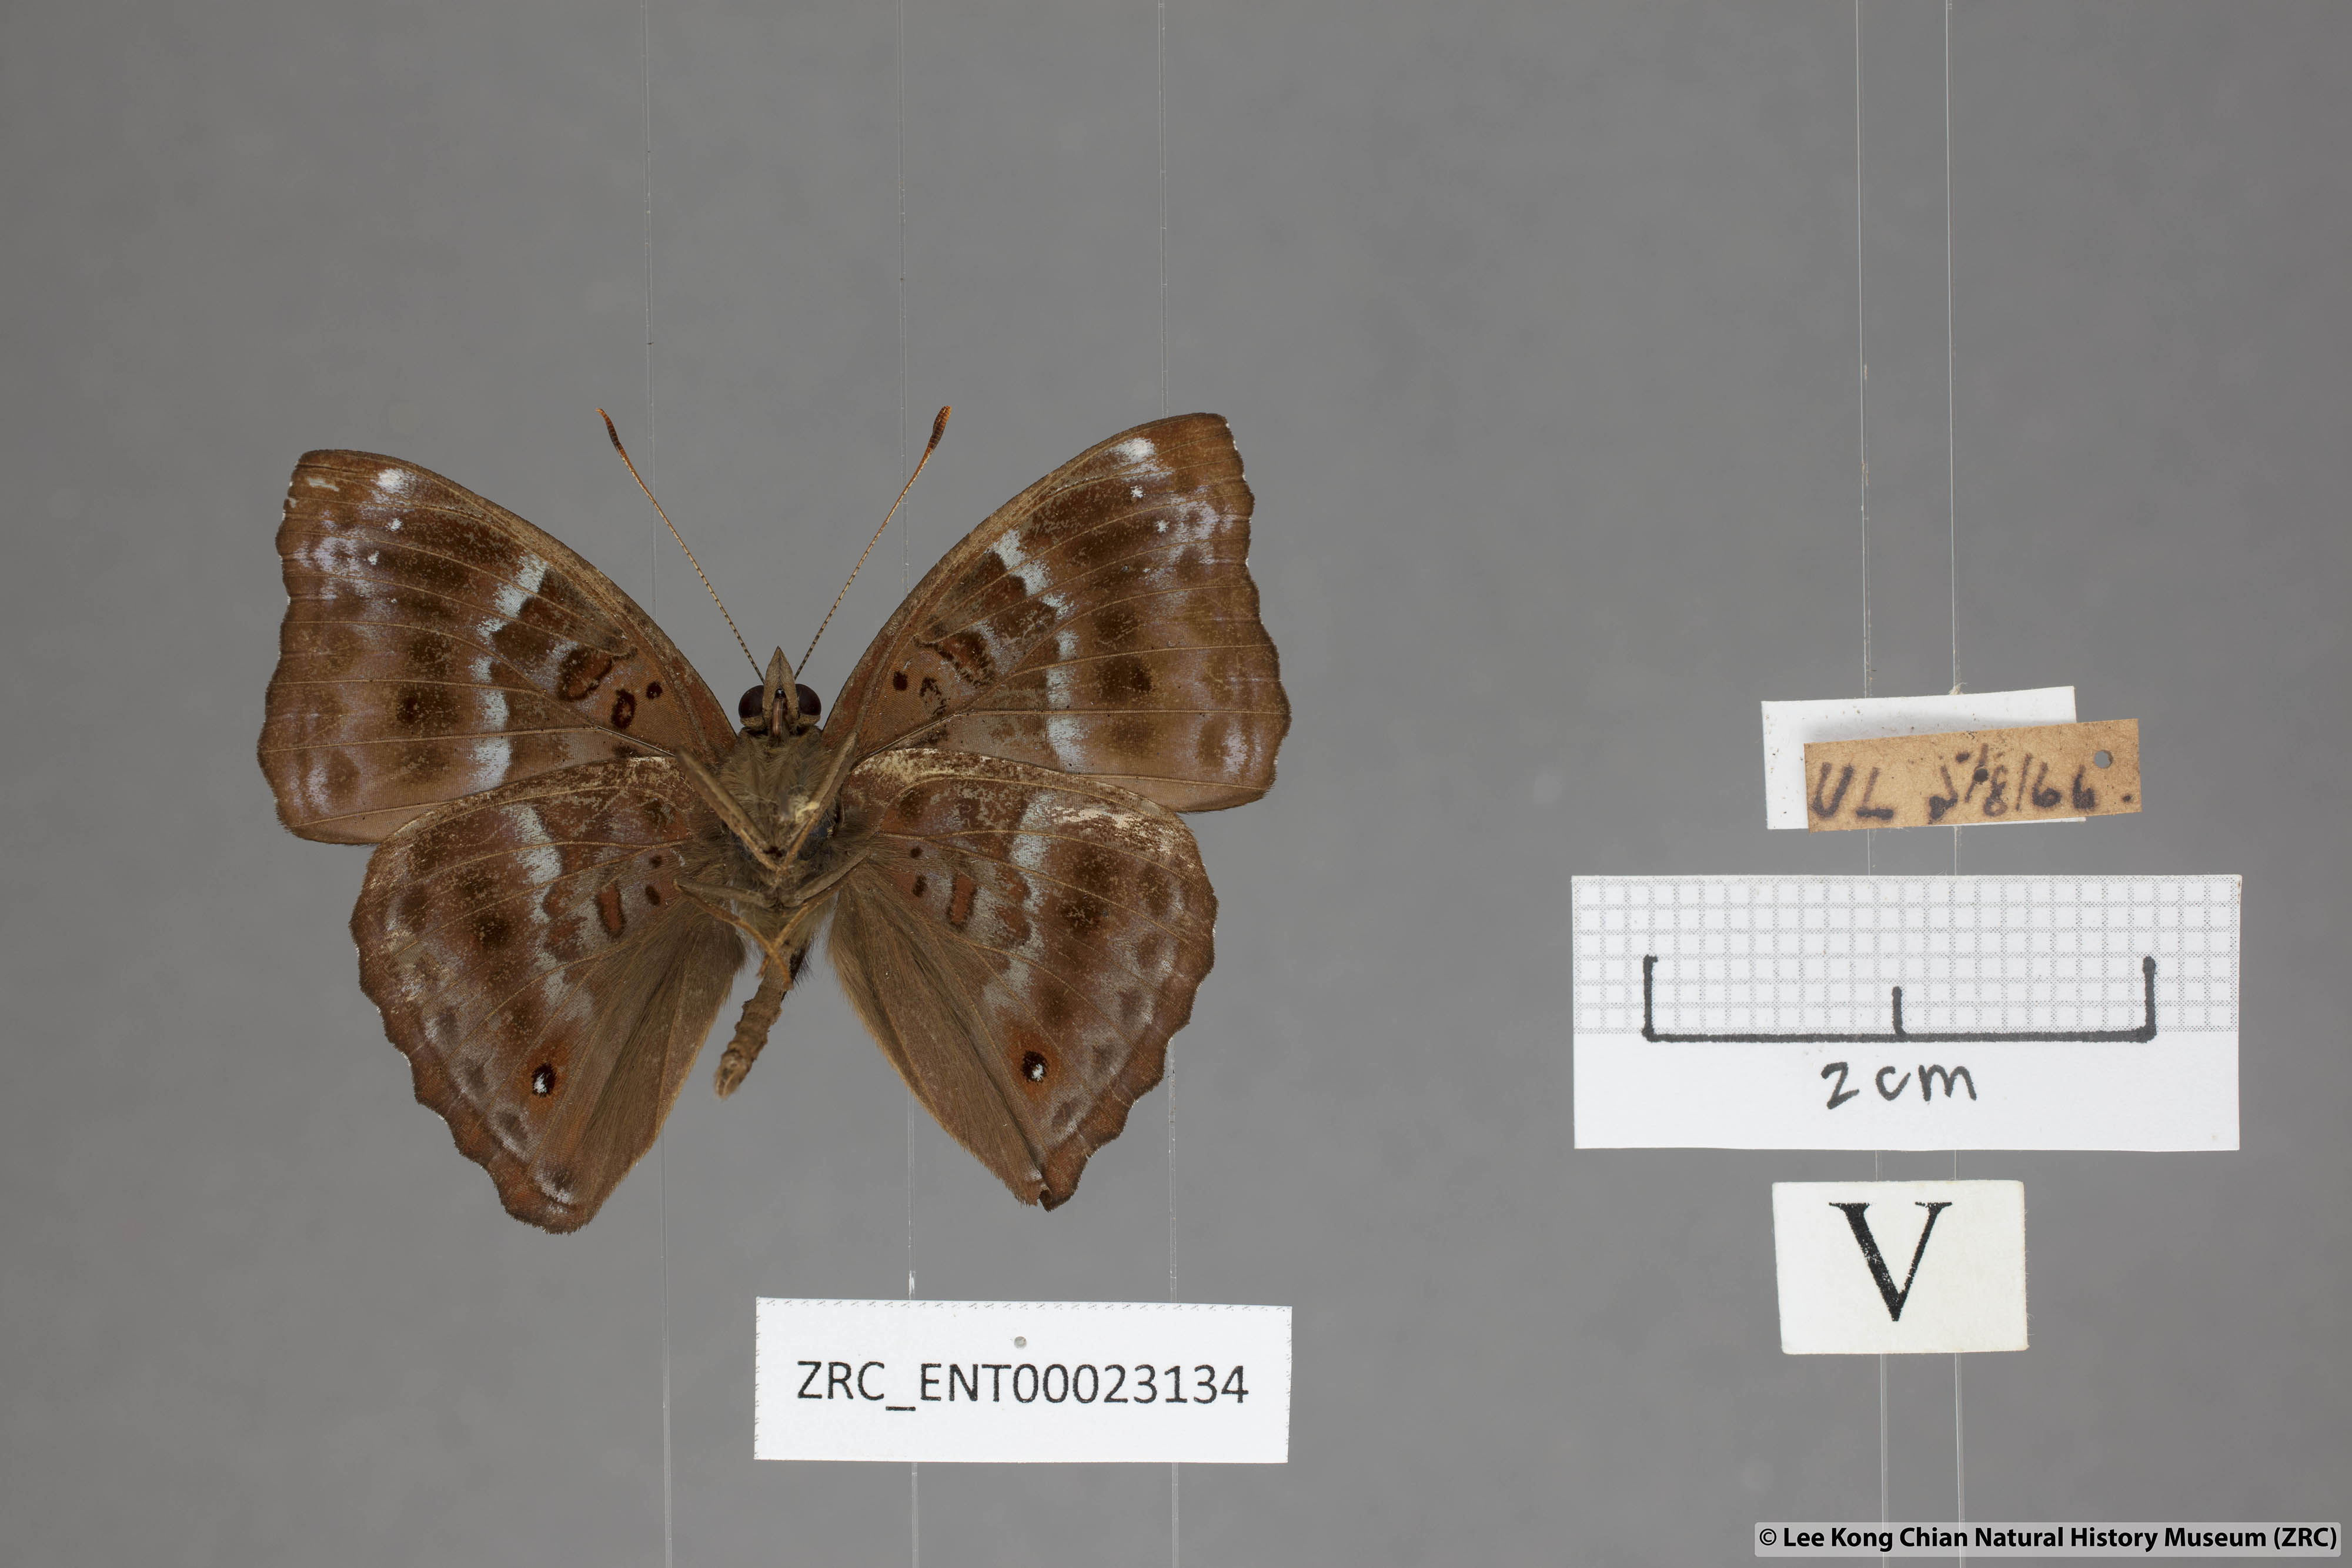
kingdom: Animalia
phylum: Arthropoda
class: Insecta
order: Lepidoptera
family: Nymphalidae
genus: Apatura
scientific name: Apatura Rohana spec
